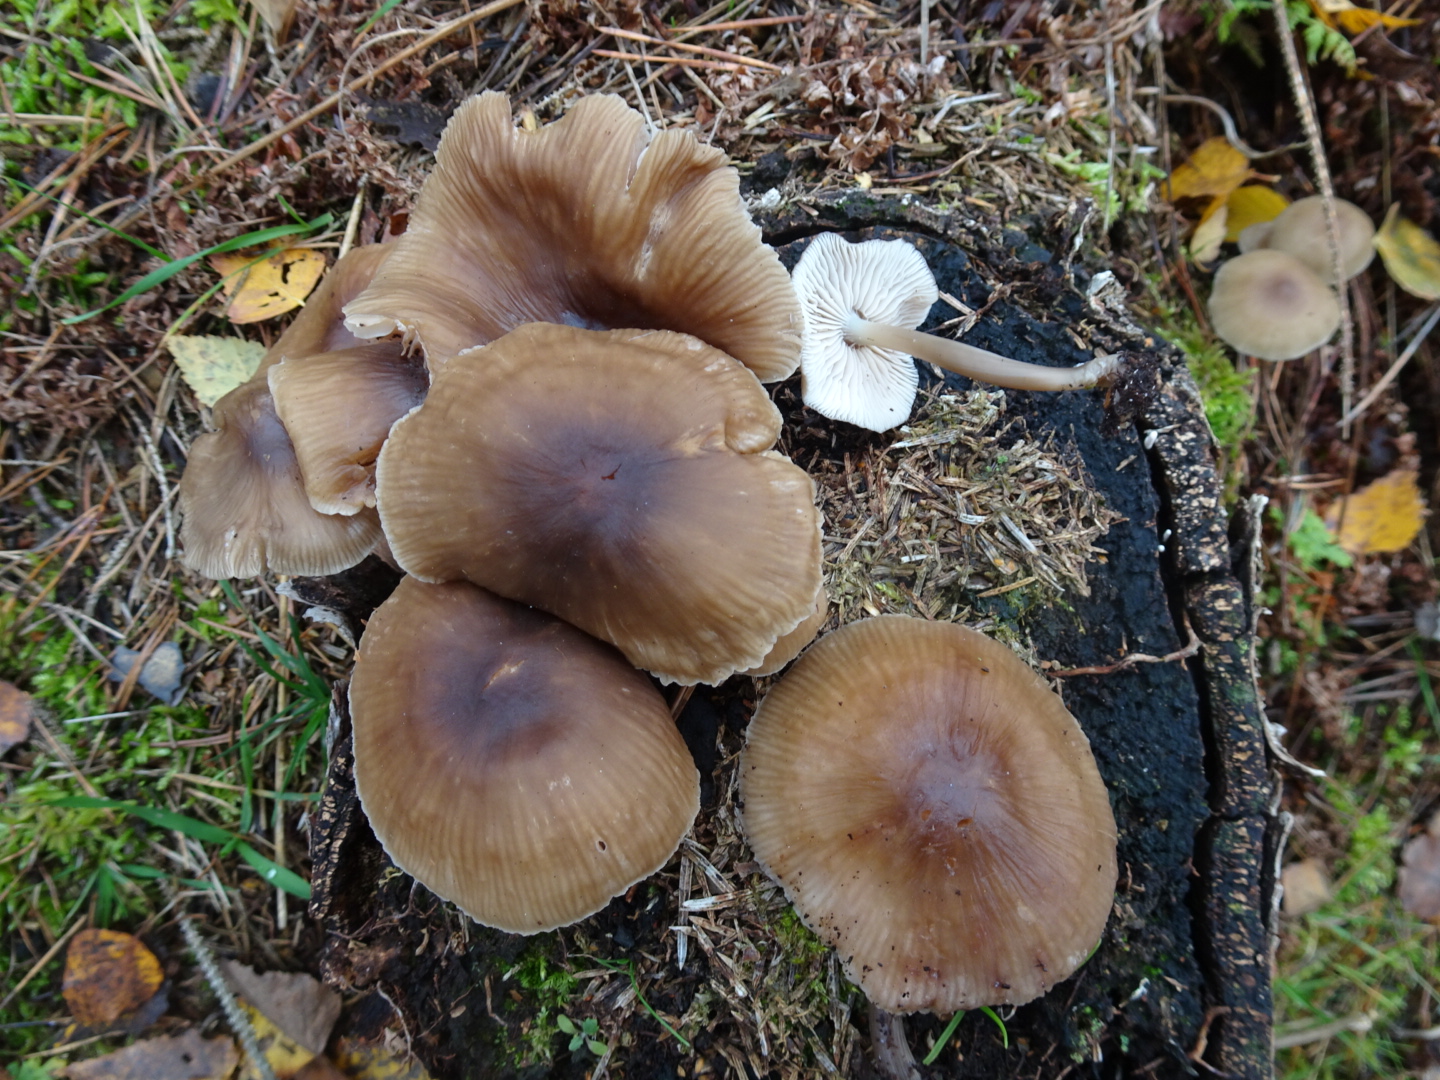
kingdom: Fungi
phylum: Basidiomycota
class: Agaricomycetes
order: Agaricales
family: Mycenaceae
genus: Mycena
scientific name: Mycena galericulata
